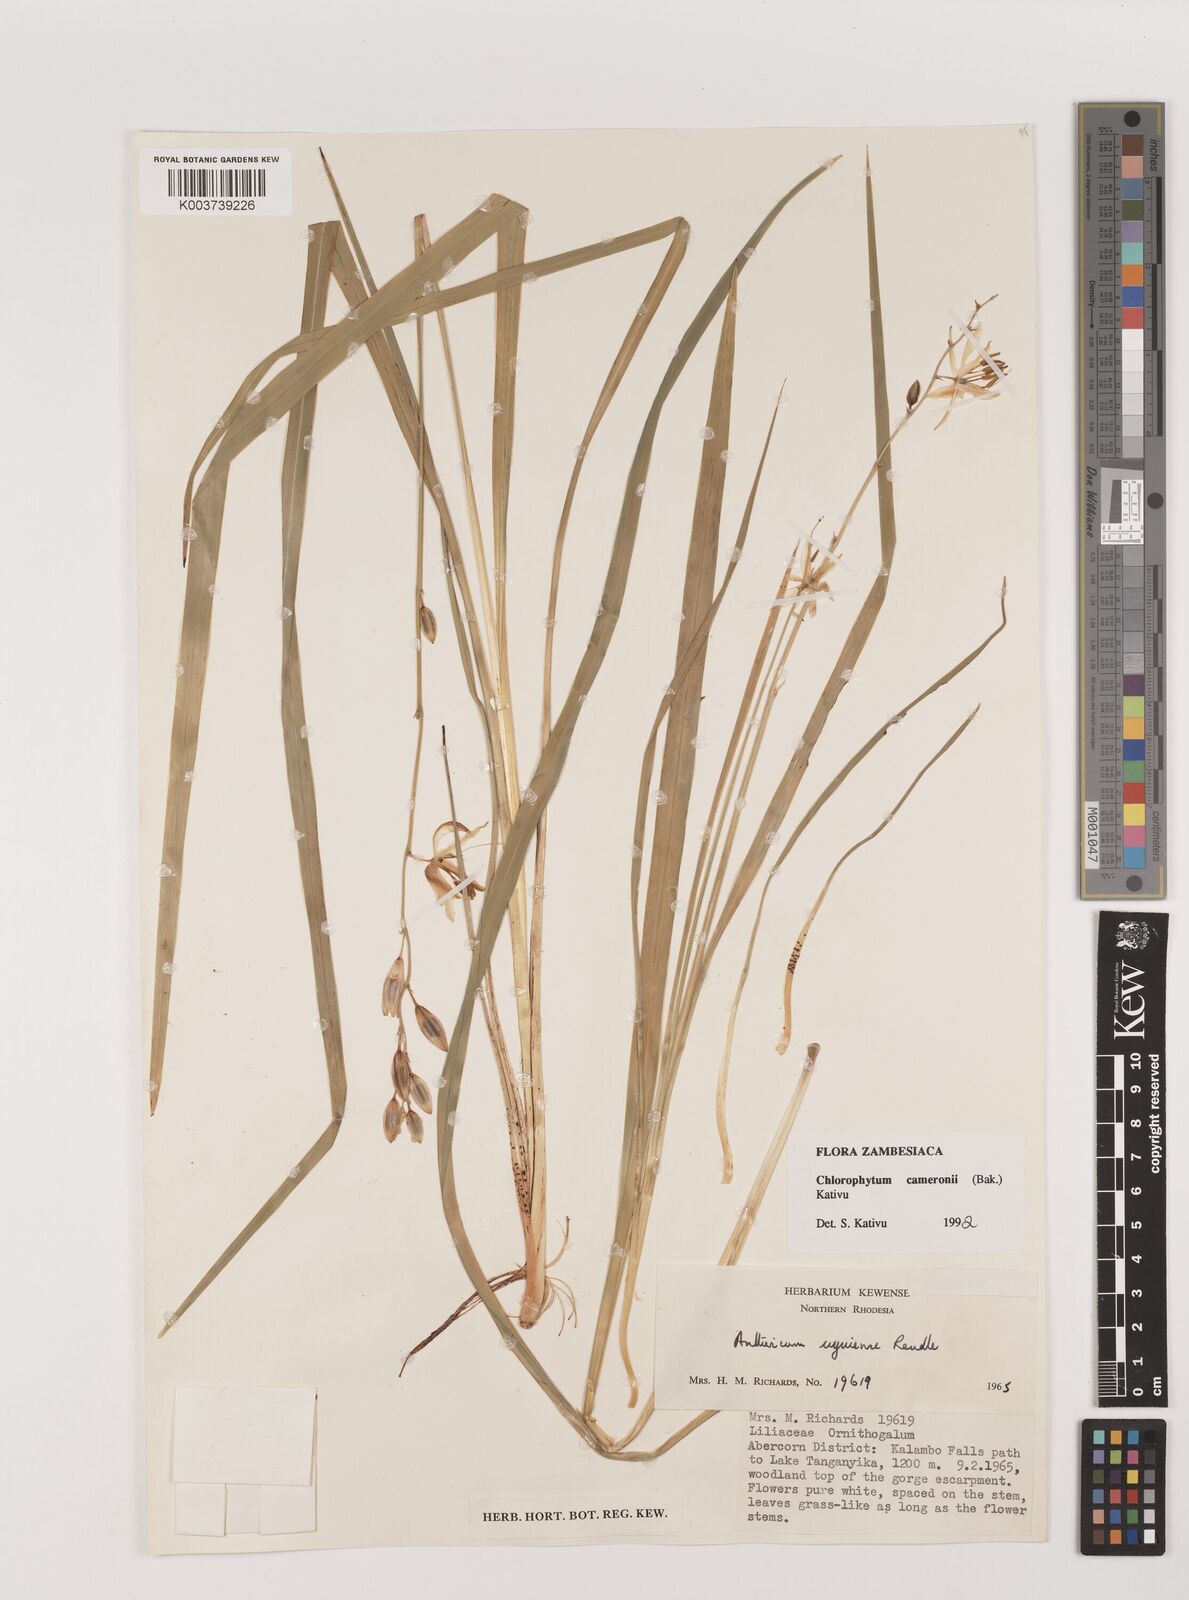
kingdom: Plantae
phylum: Tracheophyta
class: Liliopsida
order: Asparagales
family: Asparagaceae
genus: Chlorophytum
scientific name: Chlorophytum cameronii
